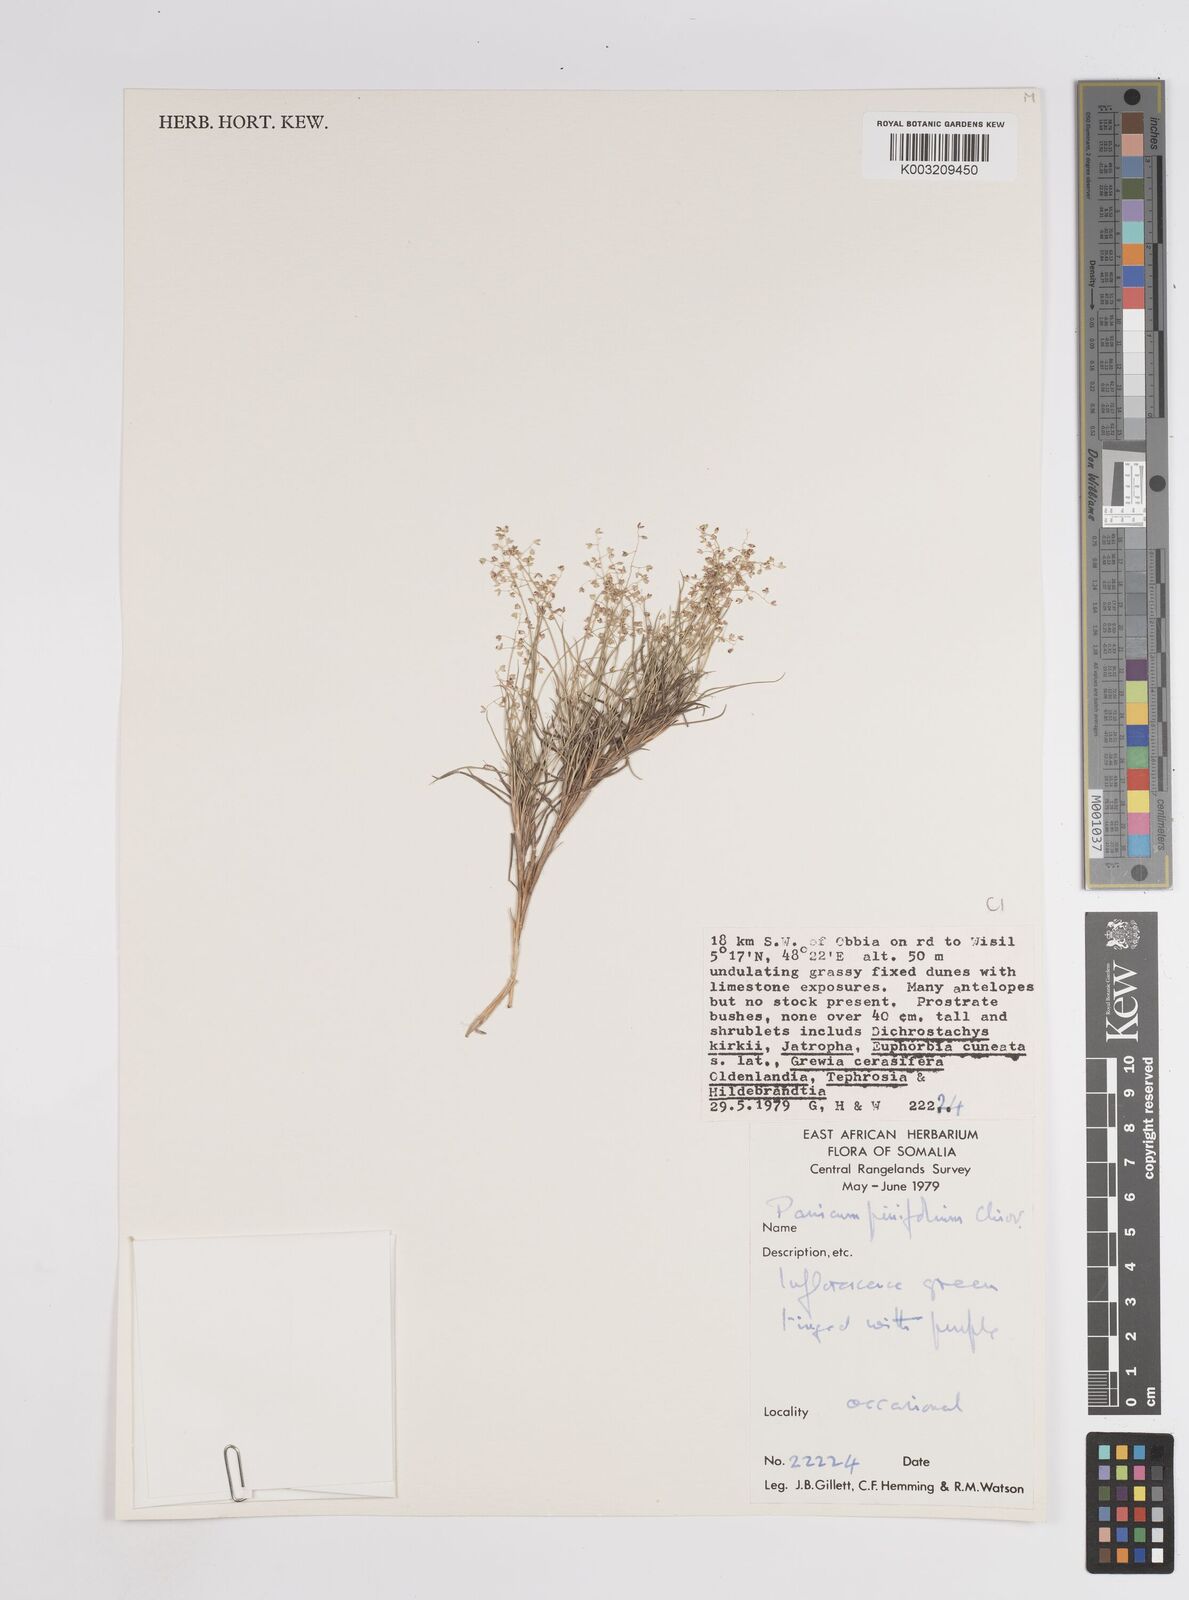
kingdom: Plantae
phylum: Tracheophyta
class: Liliopsida
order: Poales
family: Poaceae
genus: Panicum
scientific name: Panicum pinifolium
